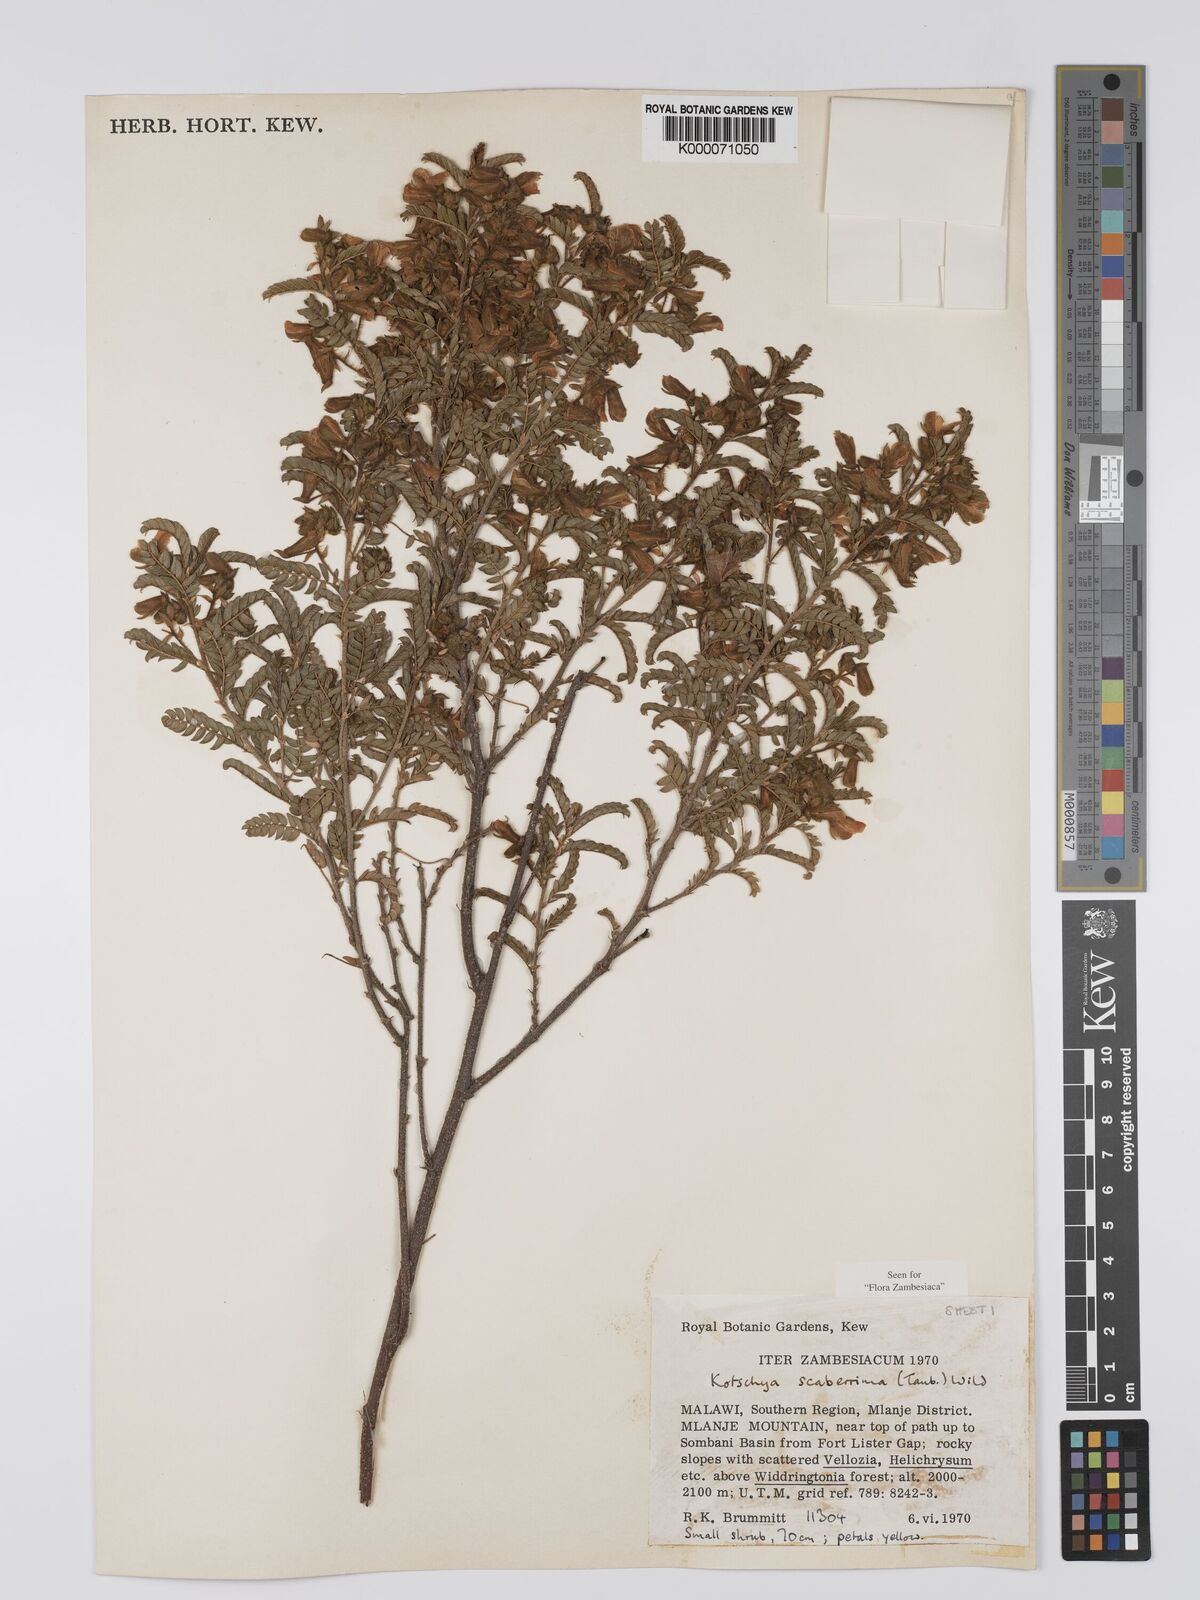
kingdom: Plantae
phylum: Tracheophyta
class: Magnoliopsida
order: Fabales
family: Fabaceae
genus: Kotschya
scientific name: Kotschya scaberrima
